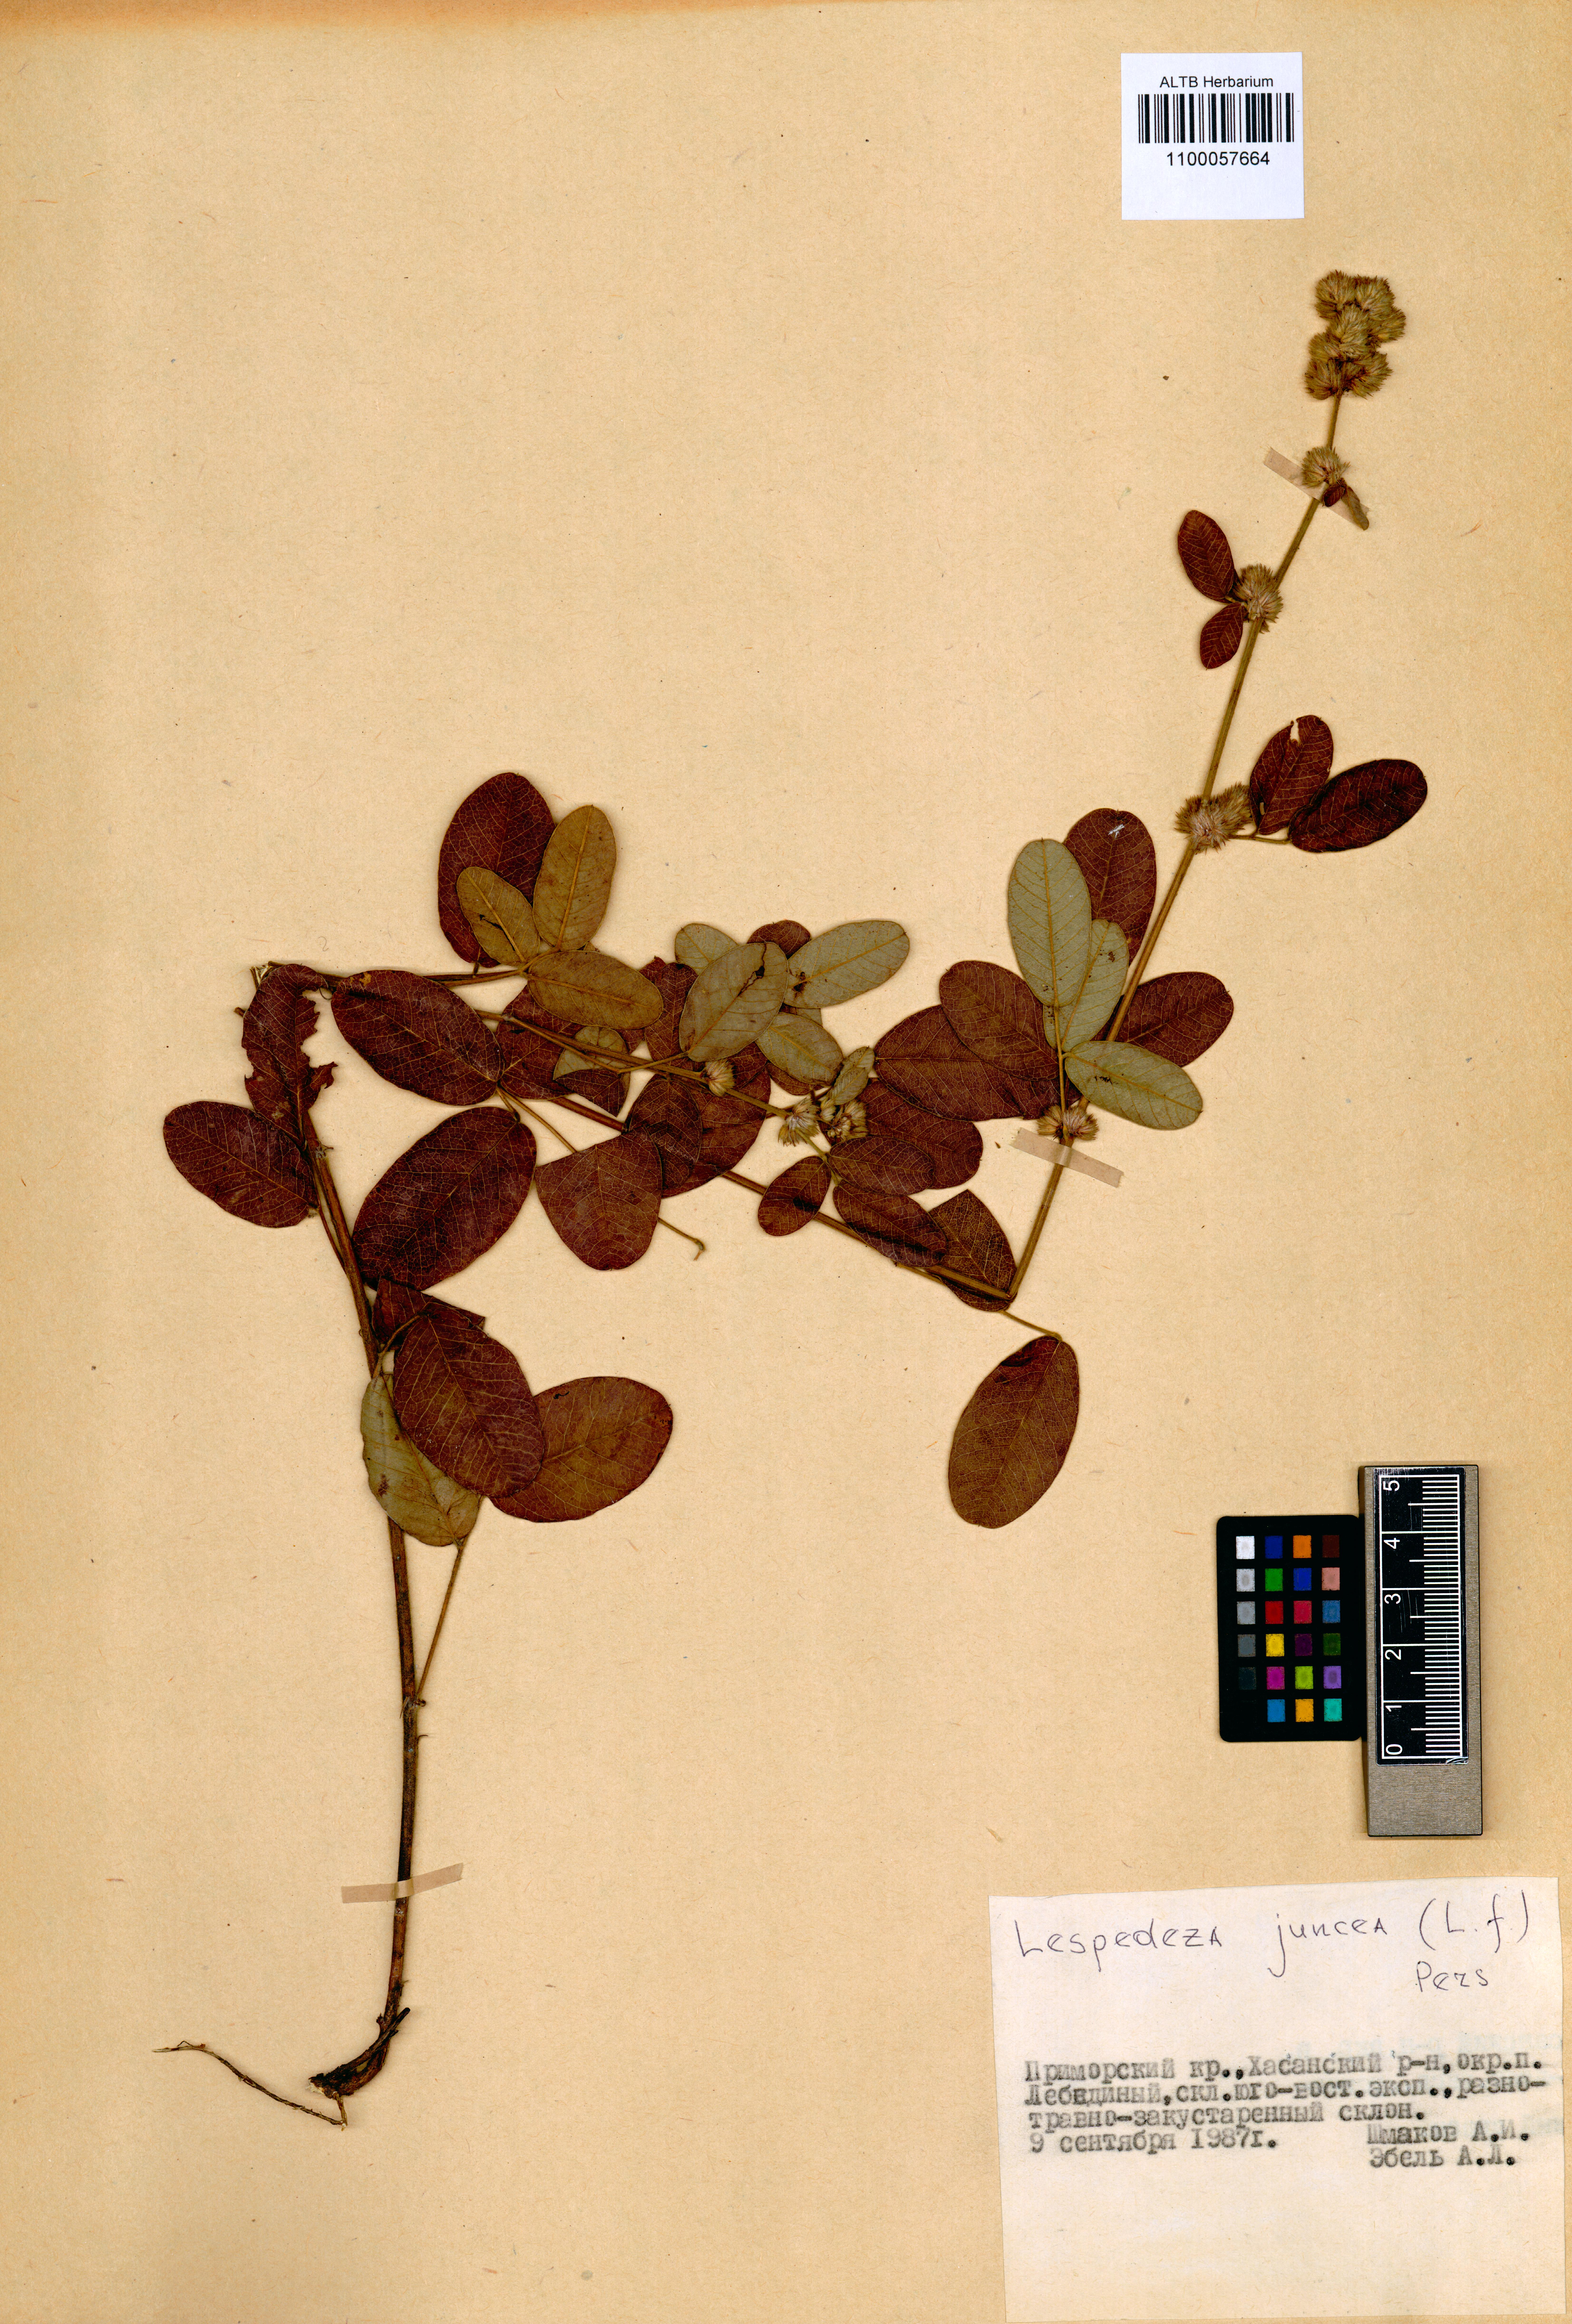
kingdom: Plantae
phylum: Tracheophyta
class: Magnoliopsida
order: Fabales
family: Fabaceae
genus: Lespedeza
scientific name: Lespedeza juncea
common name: Siberian lespedeza
